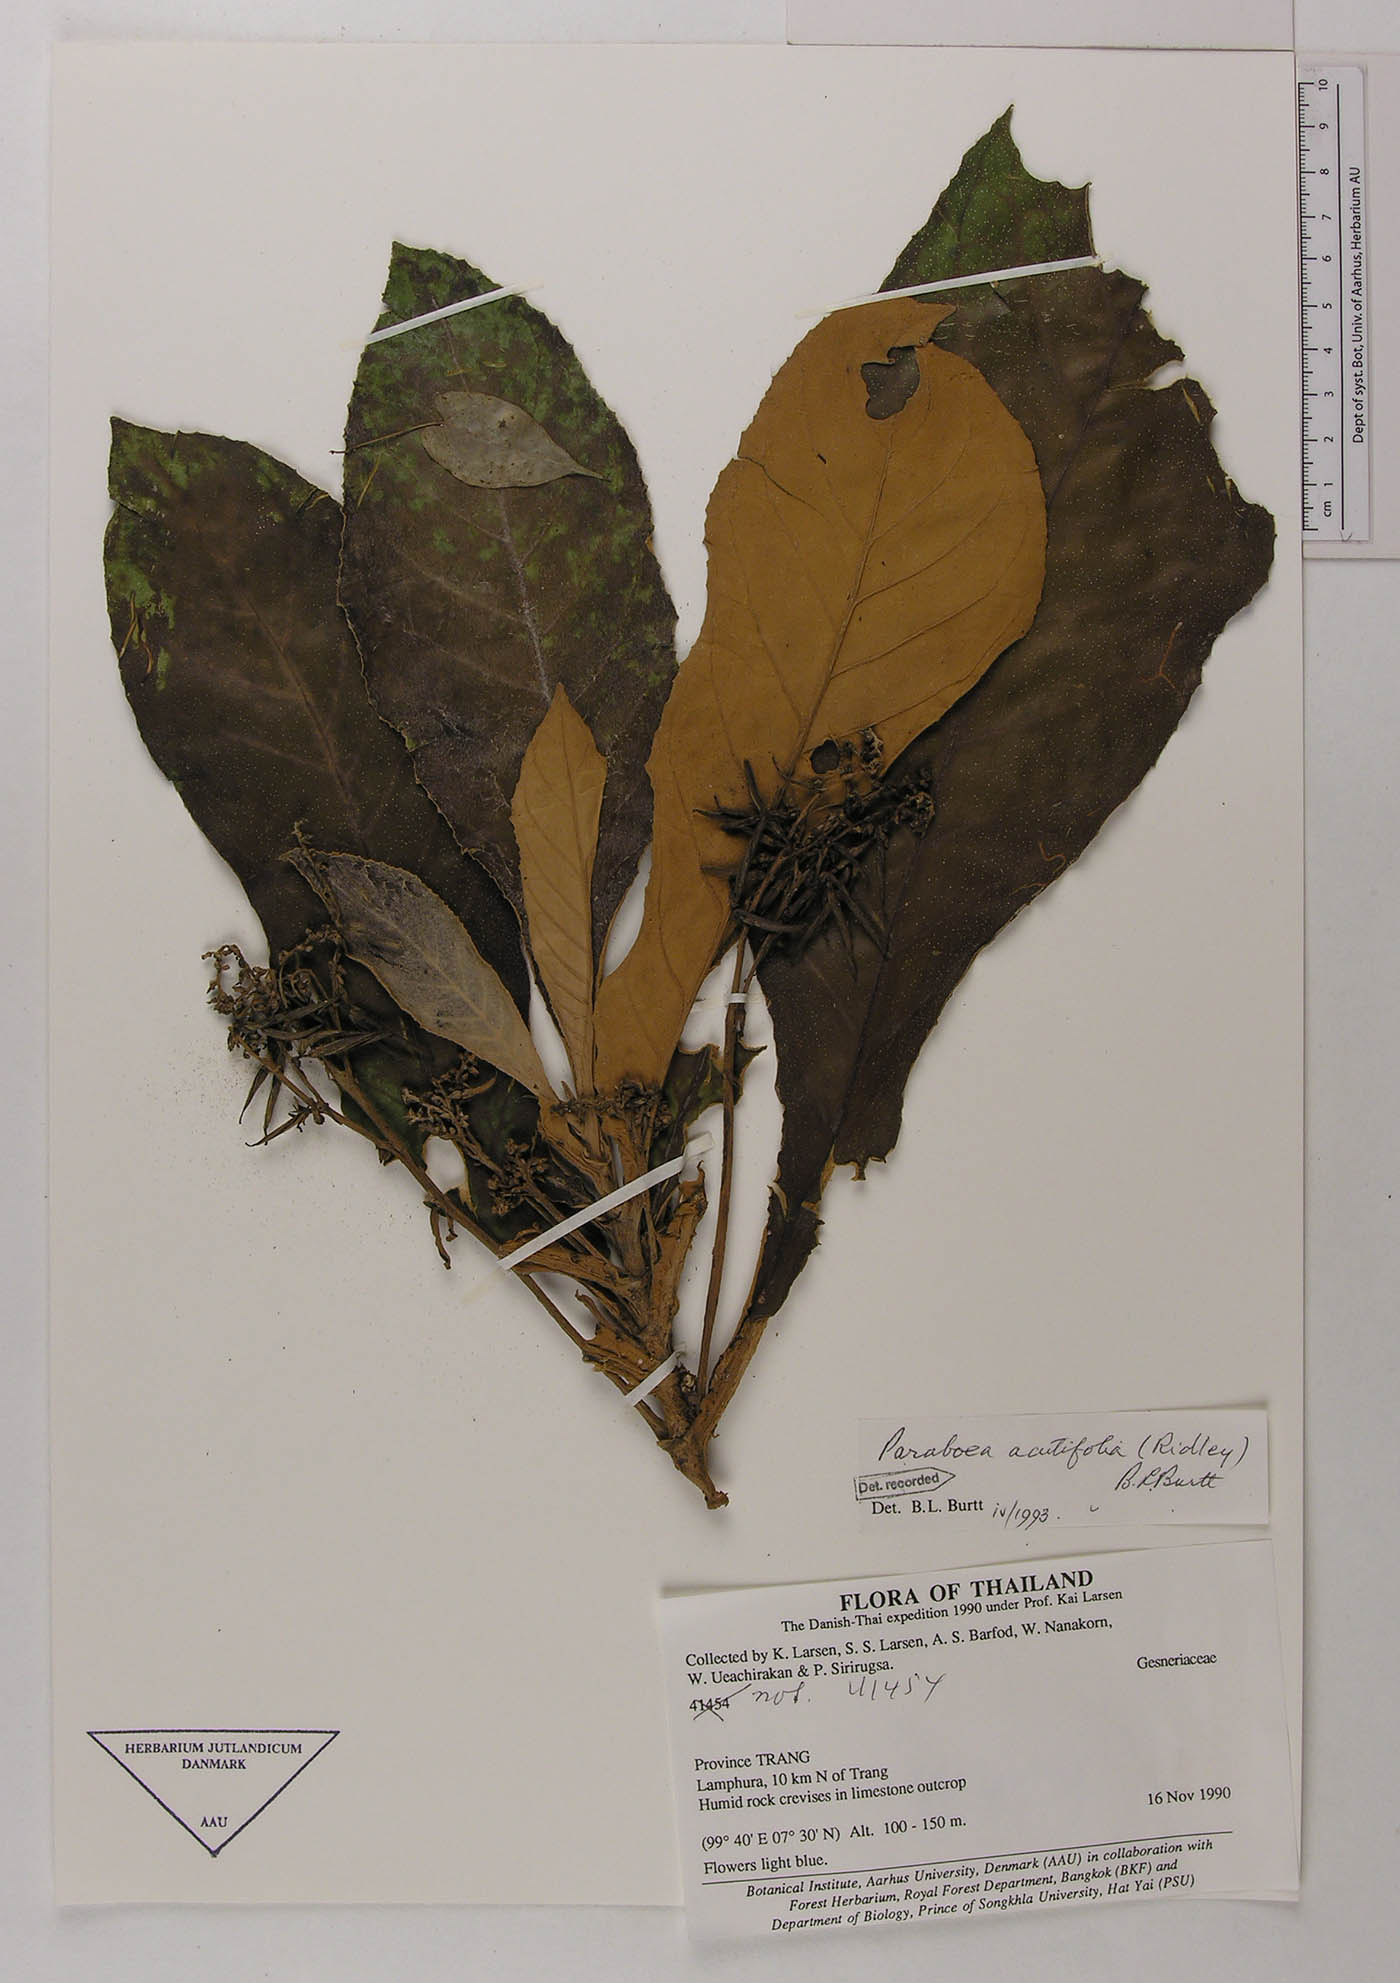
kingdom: Plantae
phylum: Tracheophyta
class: Magnoliopsida
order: Lamiales
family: Gesneriaceae
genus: Paraboea
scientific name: Paraboea acutifolia
